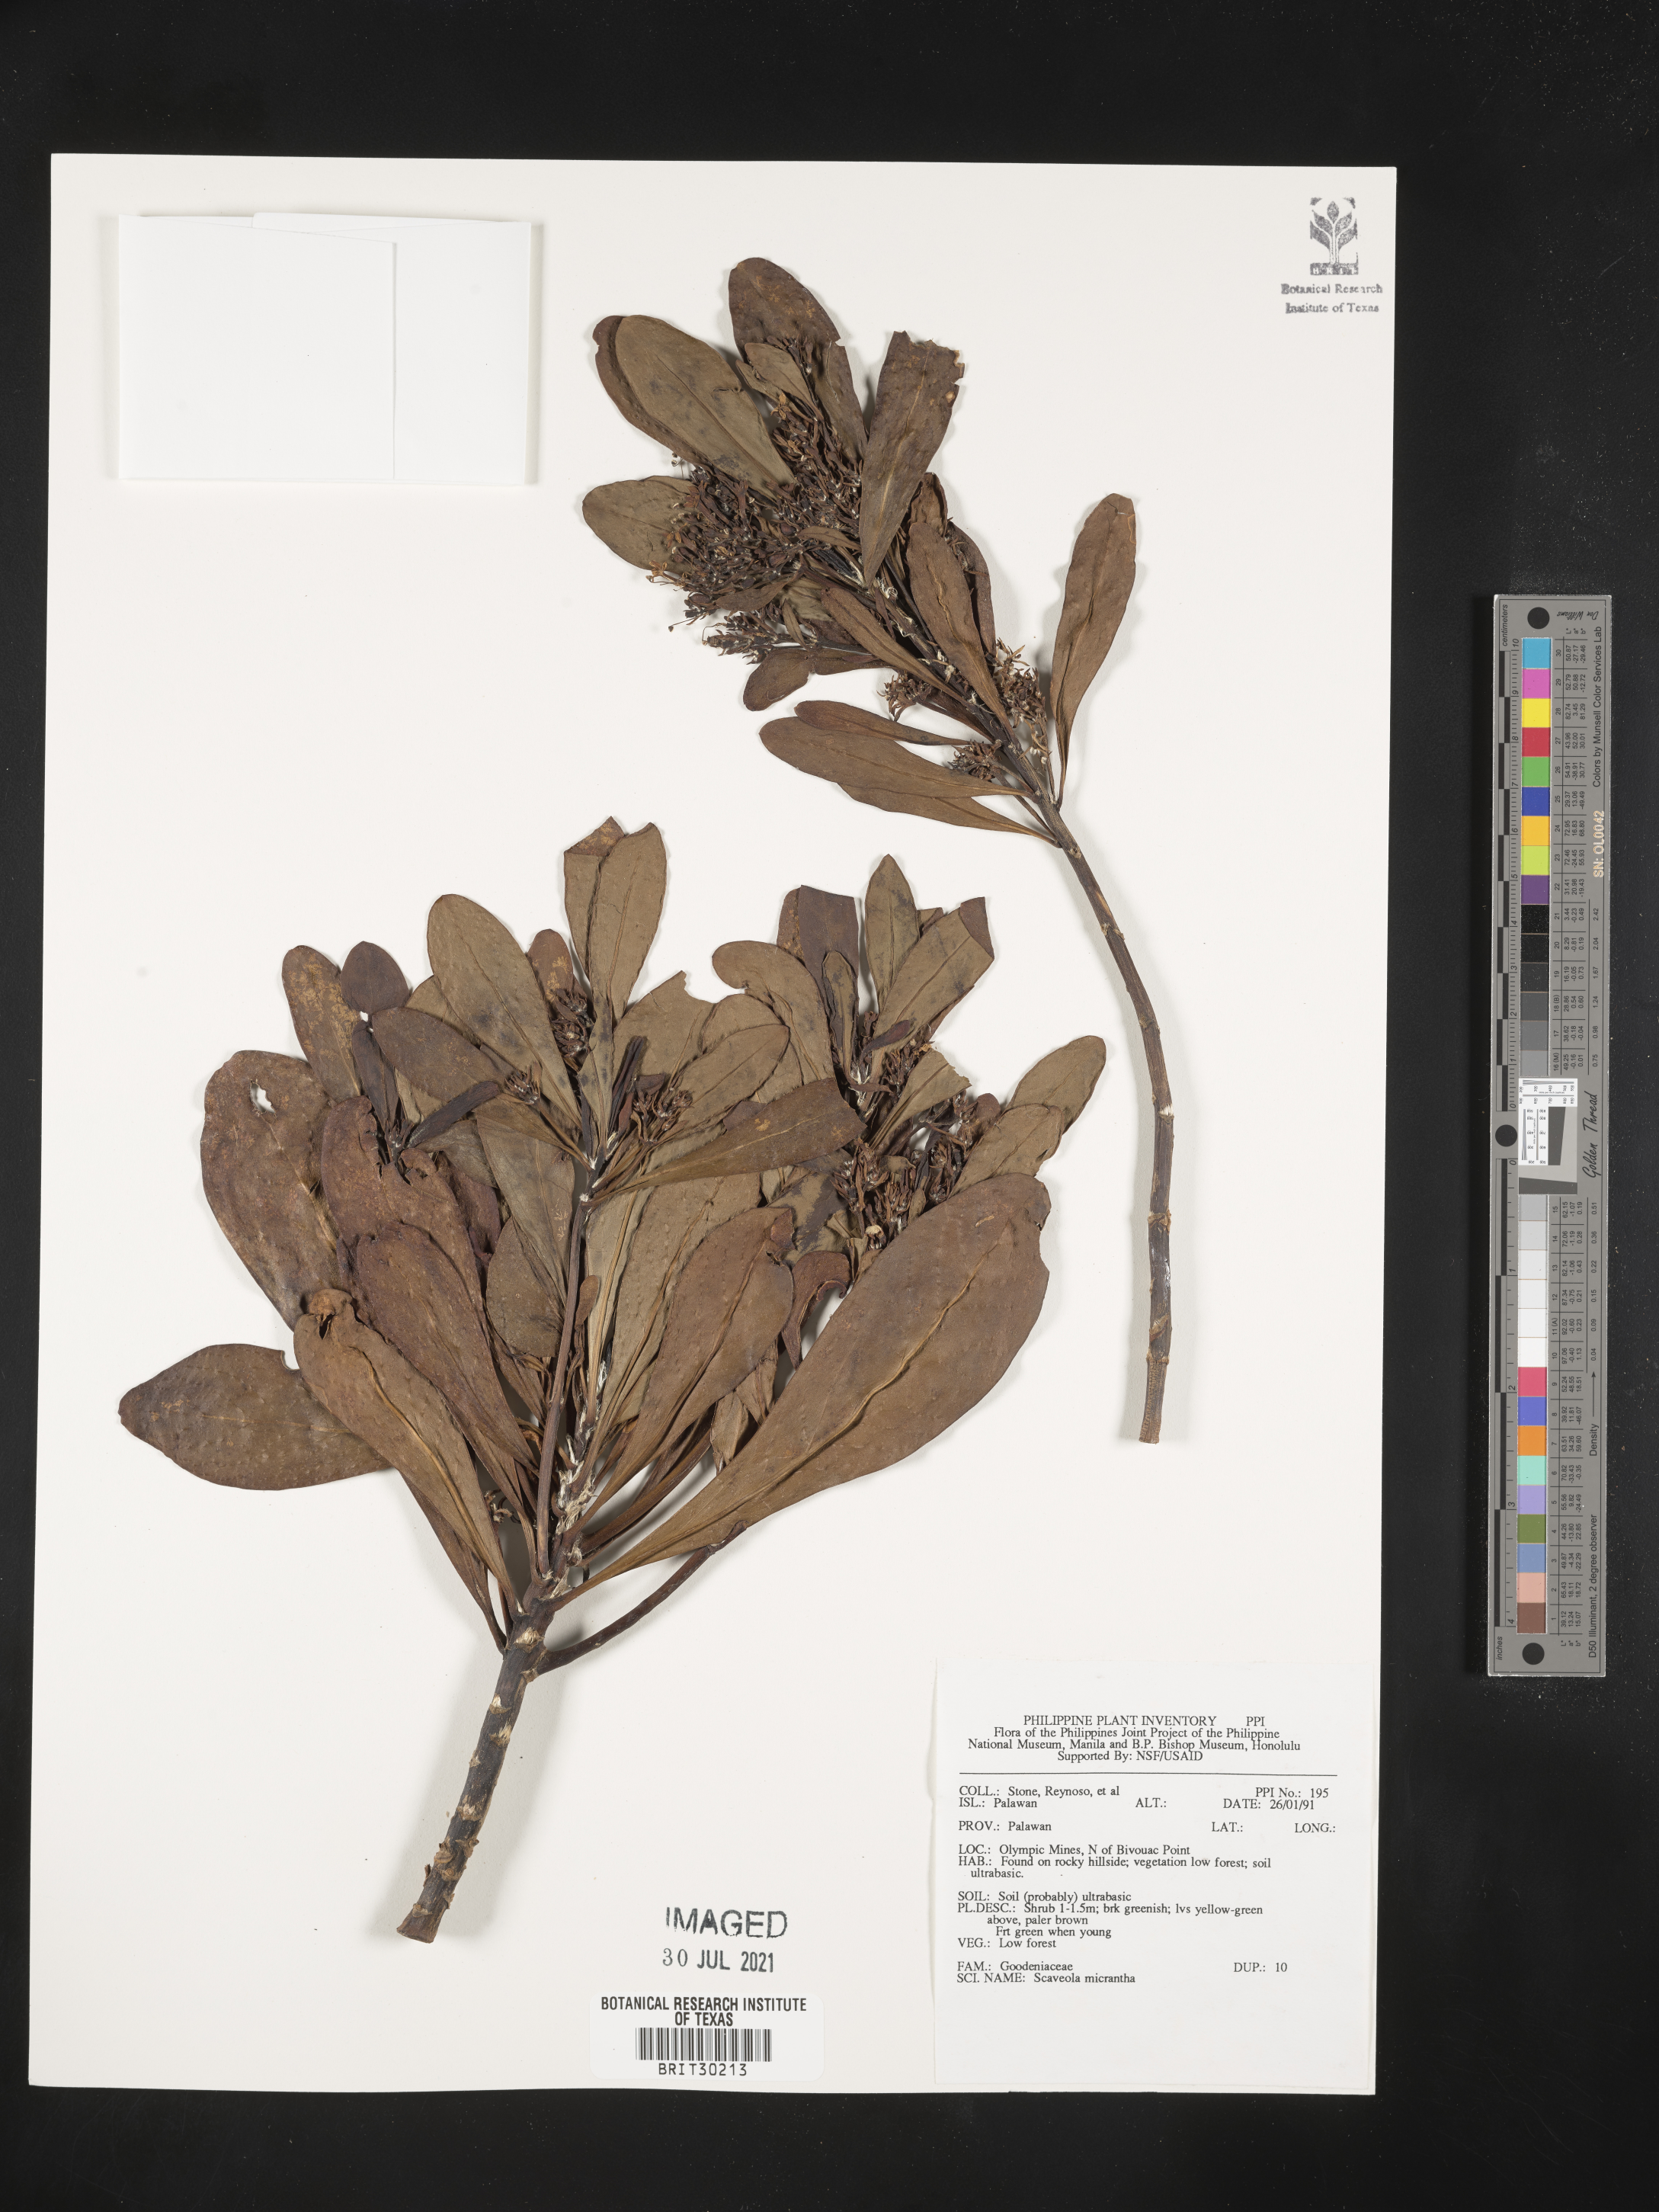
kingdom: Plantae
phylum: Tracheophyta
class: Magnoliopsida
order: Asterales
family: Goodeniaceae
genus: Scaevola
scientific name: Scaevola micrantha
